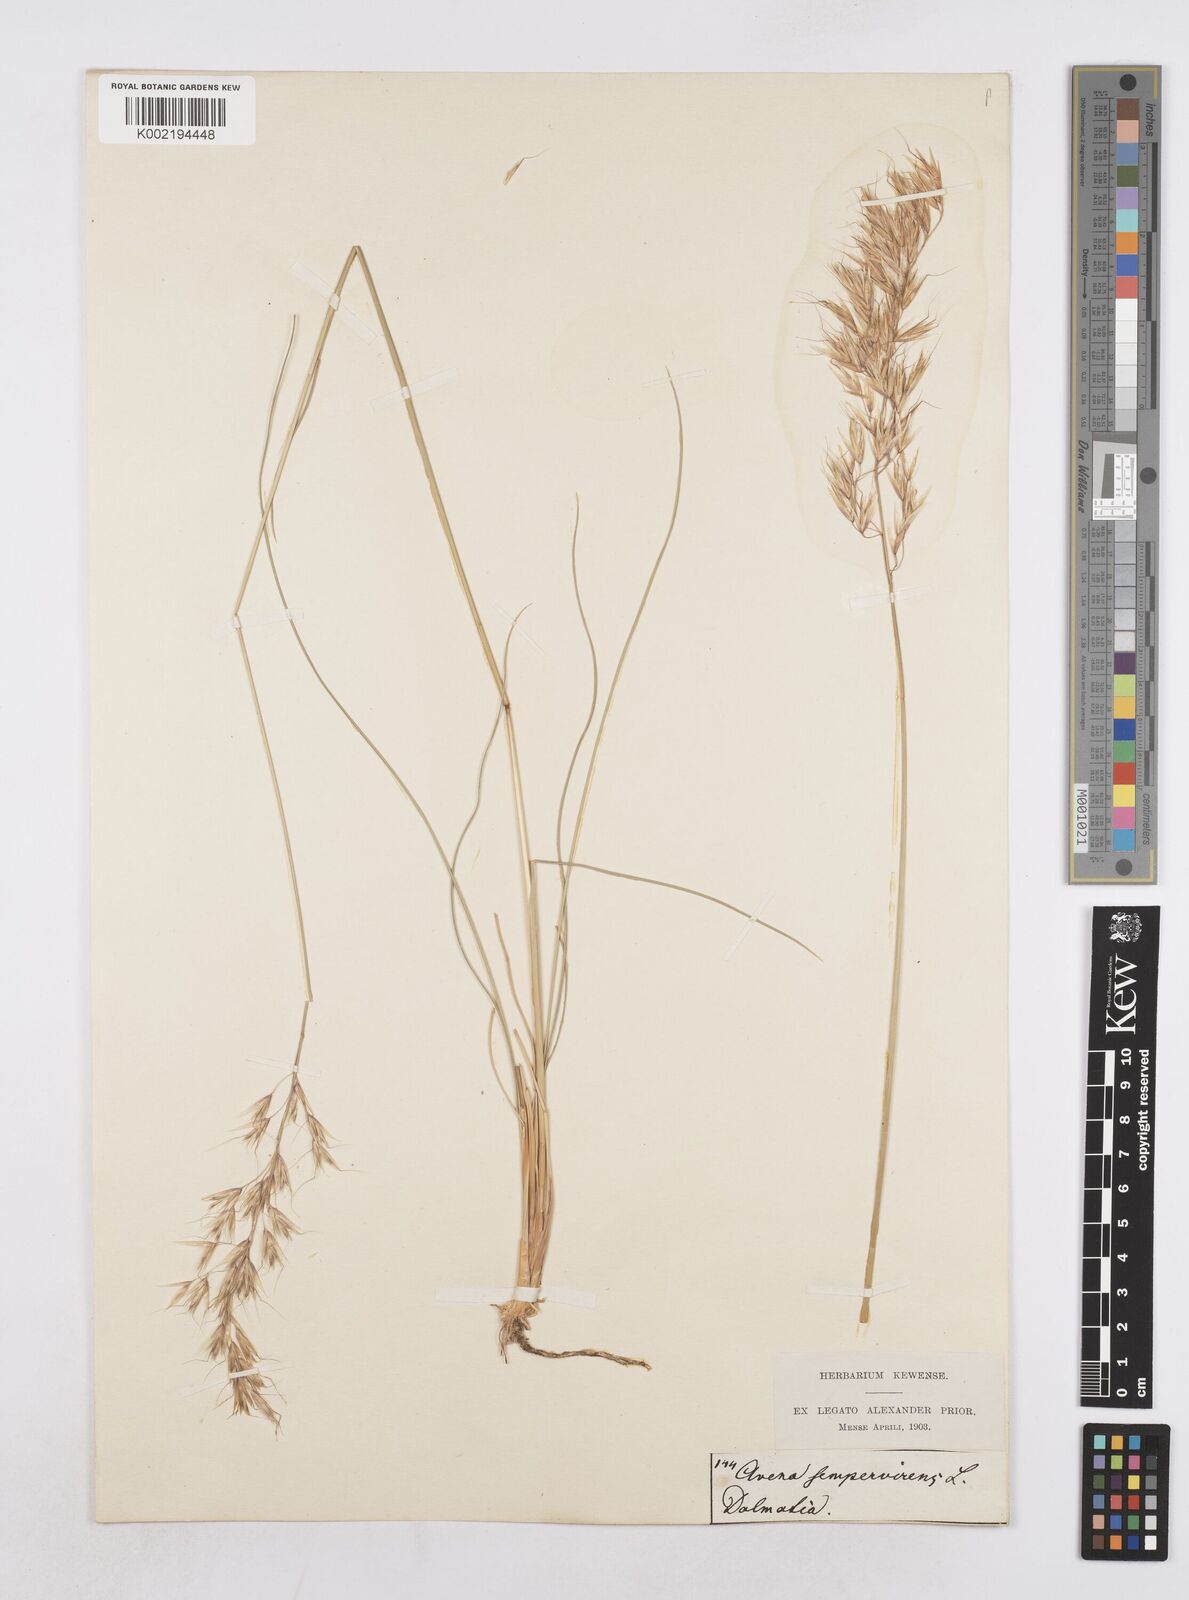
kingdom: Plantae
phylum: Tracheophyta
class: Liliopsida
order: Poales
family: Poaceae
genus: Helictotrichon
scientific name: Helictotrichon sempervirens
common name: Blue oat-grass
